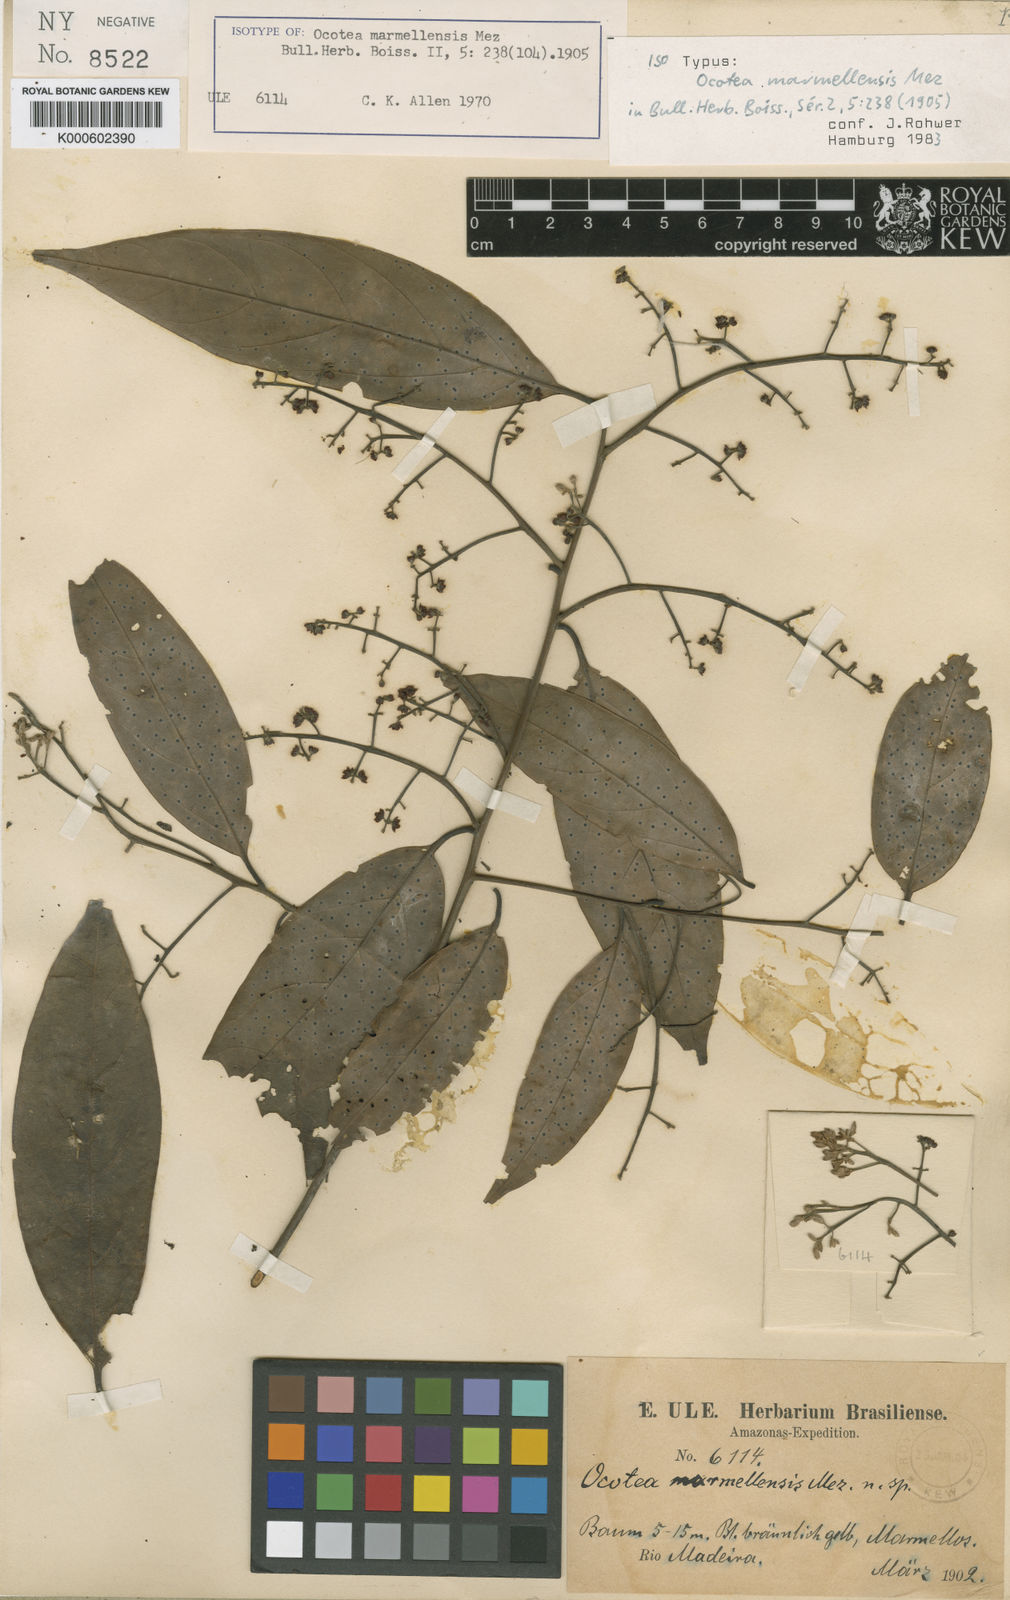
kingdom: Plantae
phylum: Tracheophyta
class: Magnoliopsida
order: Laurales
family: Lauraceae
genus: Ocotea
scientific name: Ocotea marmellensis
